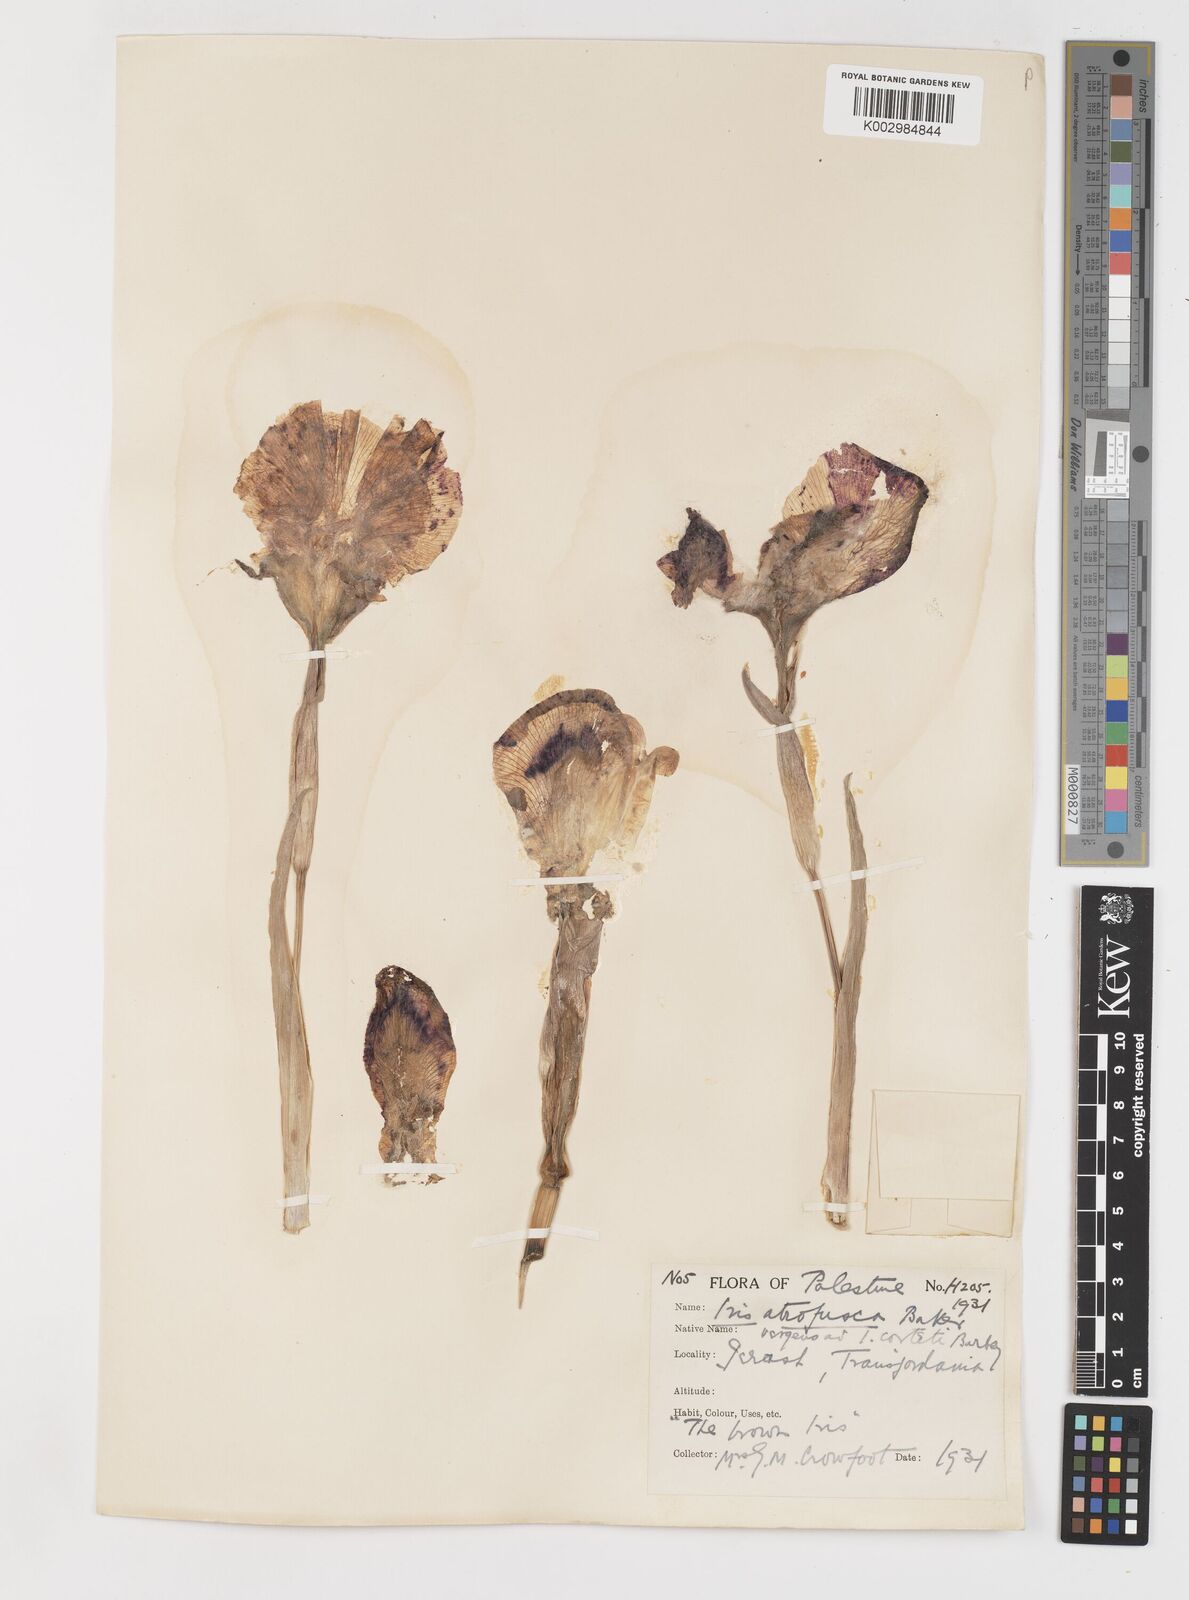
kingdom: Plantae
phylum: Tracheophyta
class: Liliopsida
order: Asparagales
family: Iridaceae
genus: Iris
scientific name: Iris atrofusca
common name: Asshafa iris
